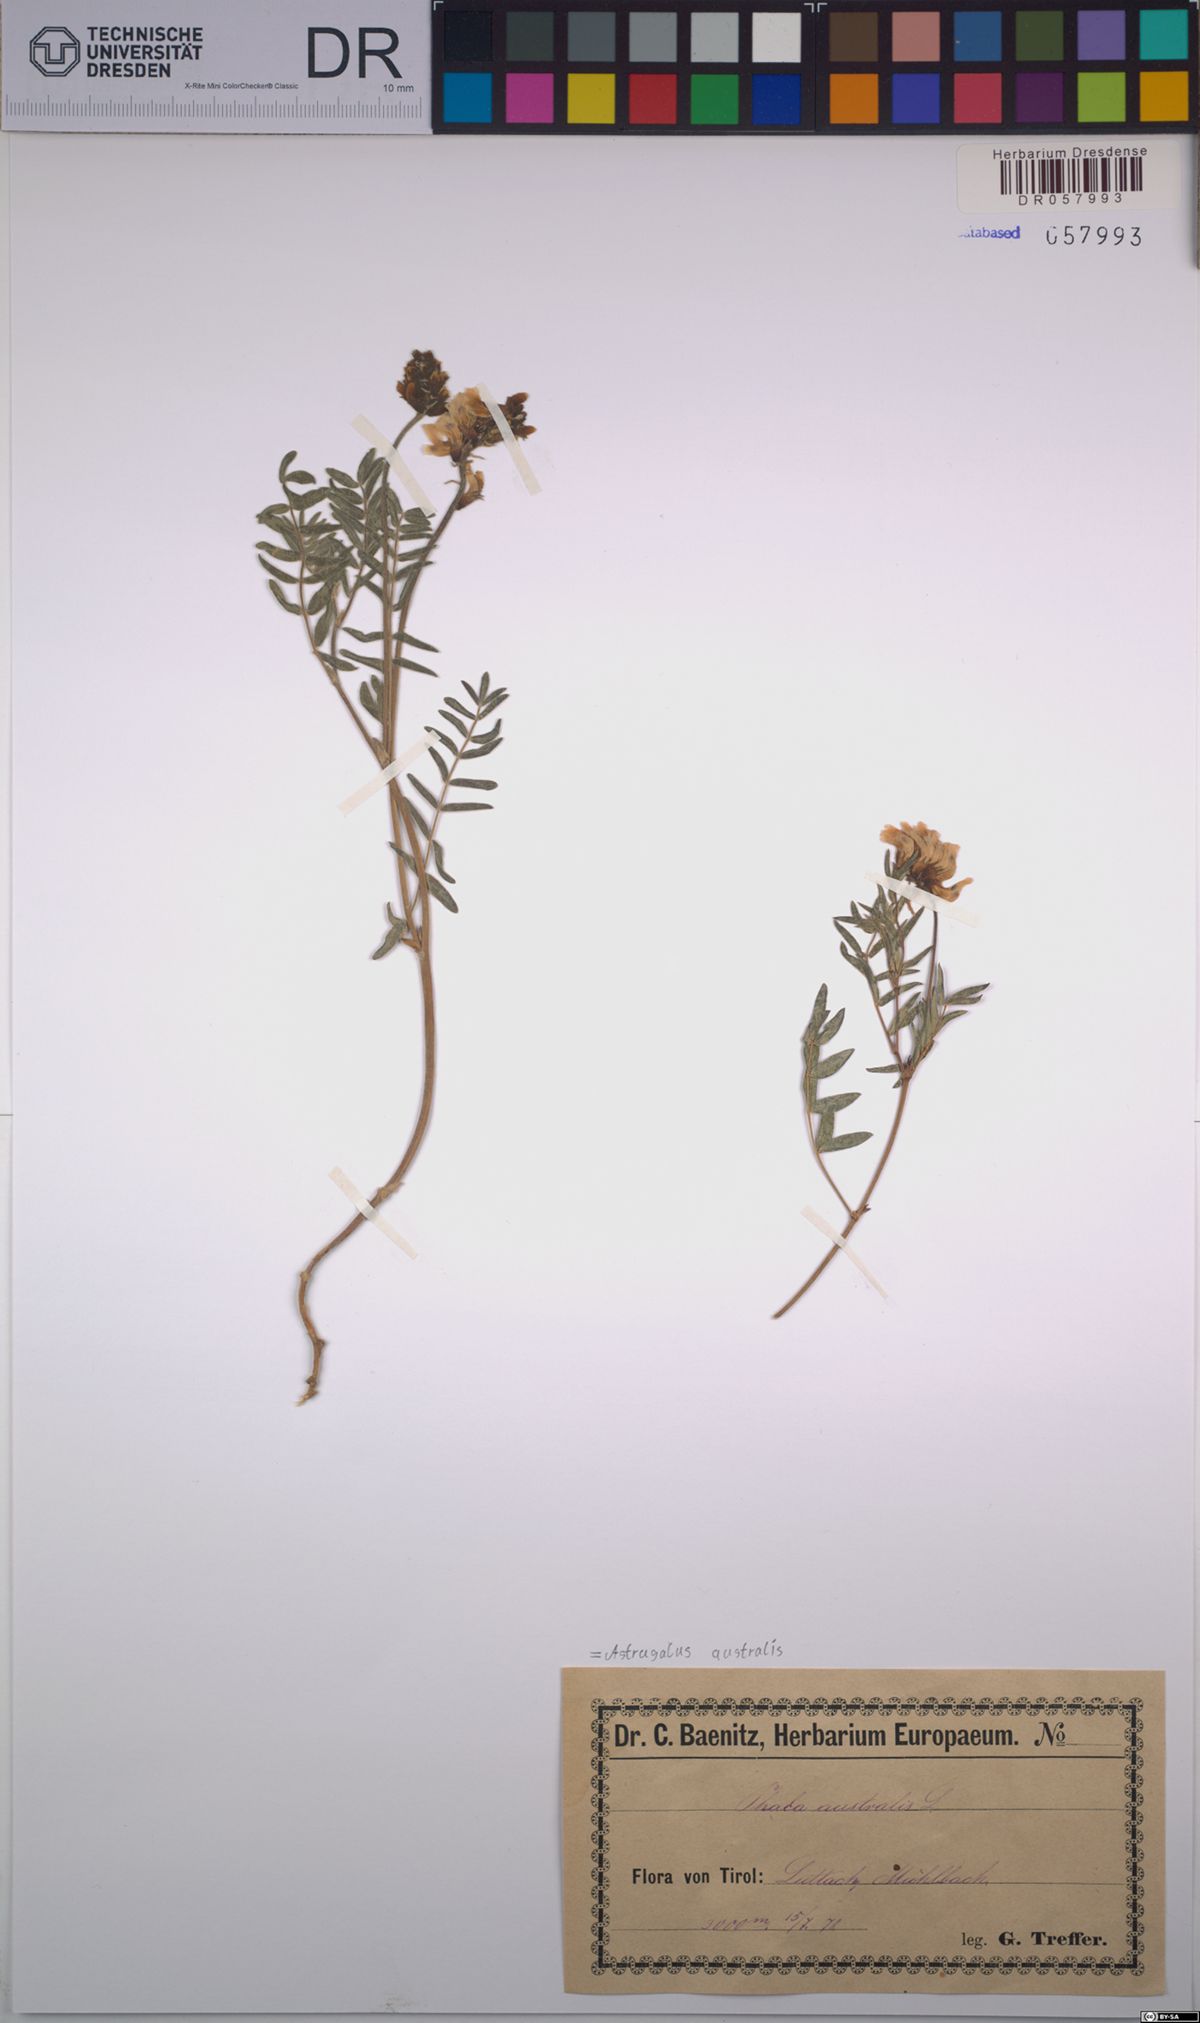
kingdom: Plantae
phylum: Tracheophyta
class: Magnoliopsida
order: Fabales
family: Fabaceae
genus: Astragalus
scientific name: Astragalus australis
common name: Indian milk-vetch
